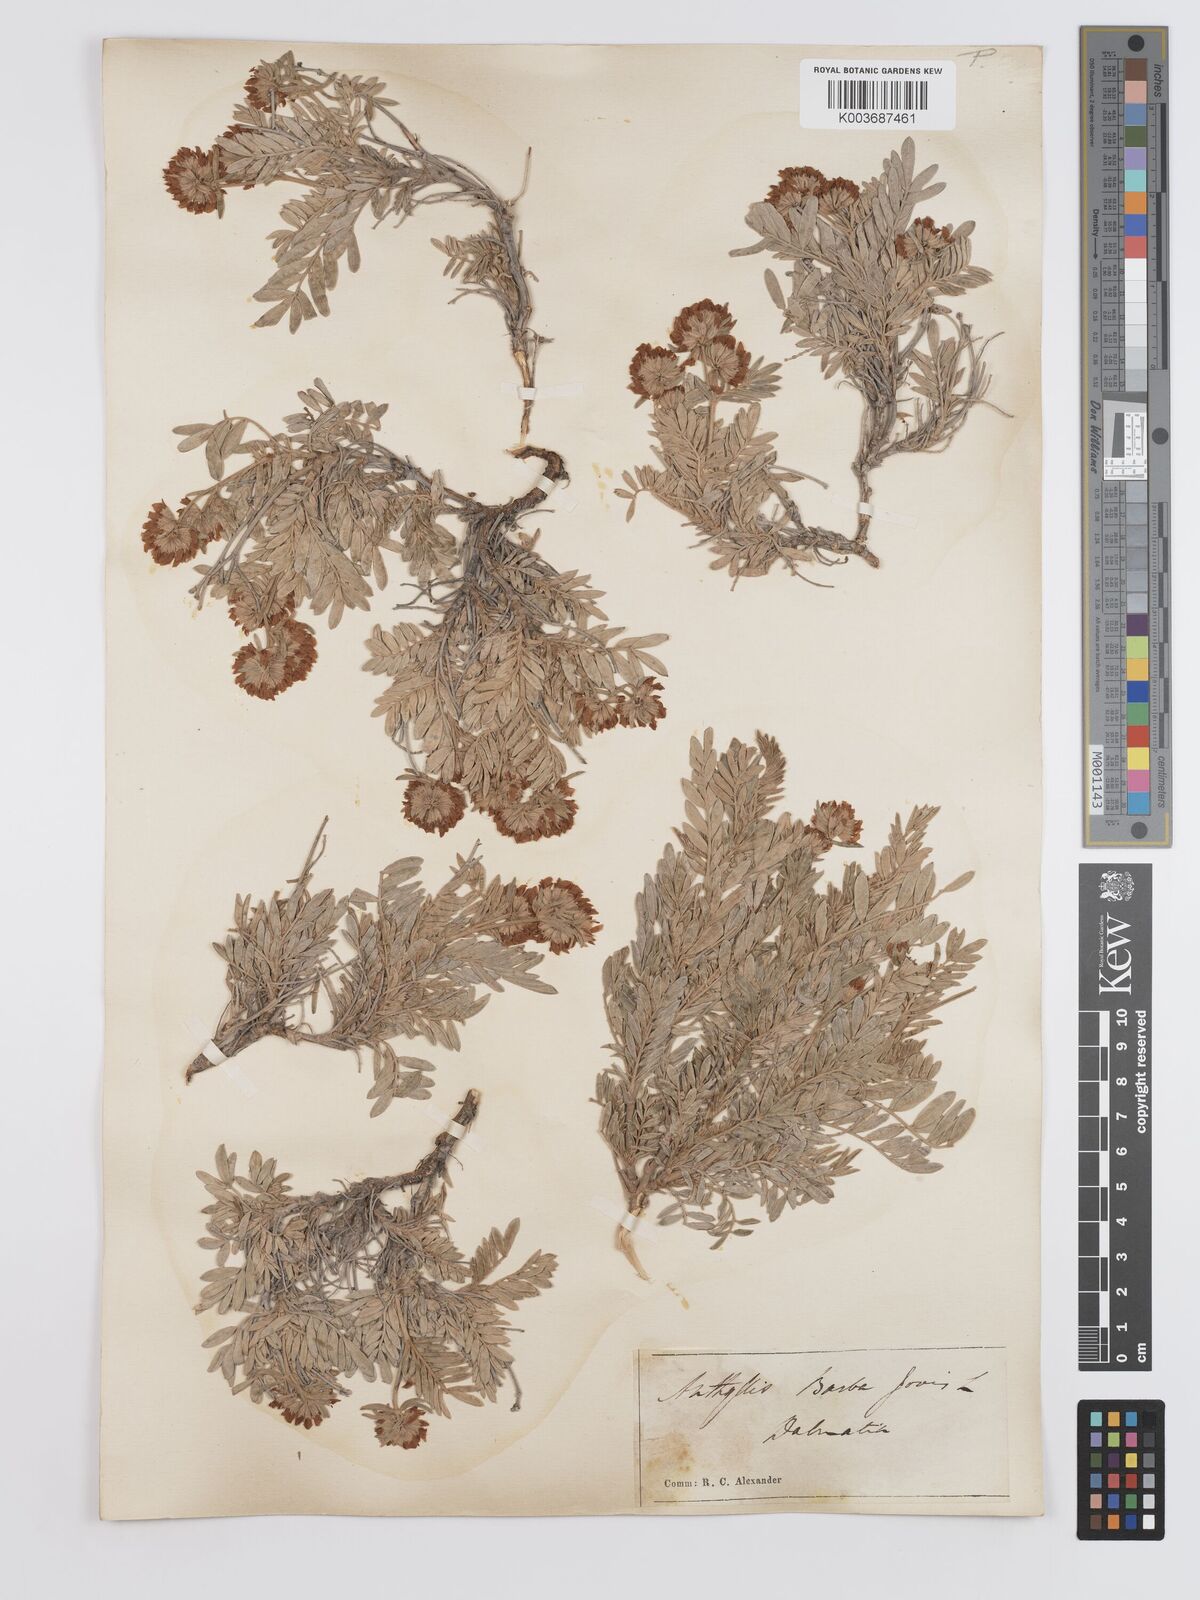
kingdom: Plantae
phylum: Tracheophyta
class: Magnoliopsida
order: Fabales
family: Fabaceae
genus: Anthyllis
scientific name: Anthyllis barba-jovis
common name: Jupiter's-beard
